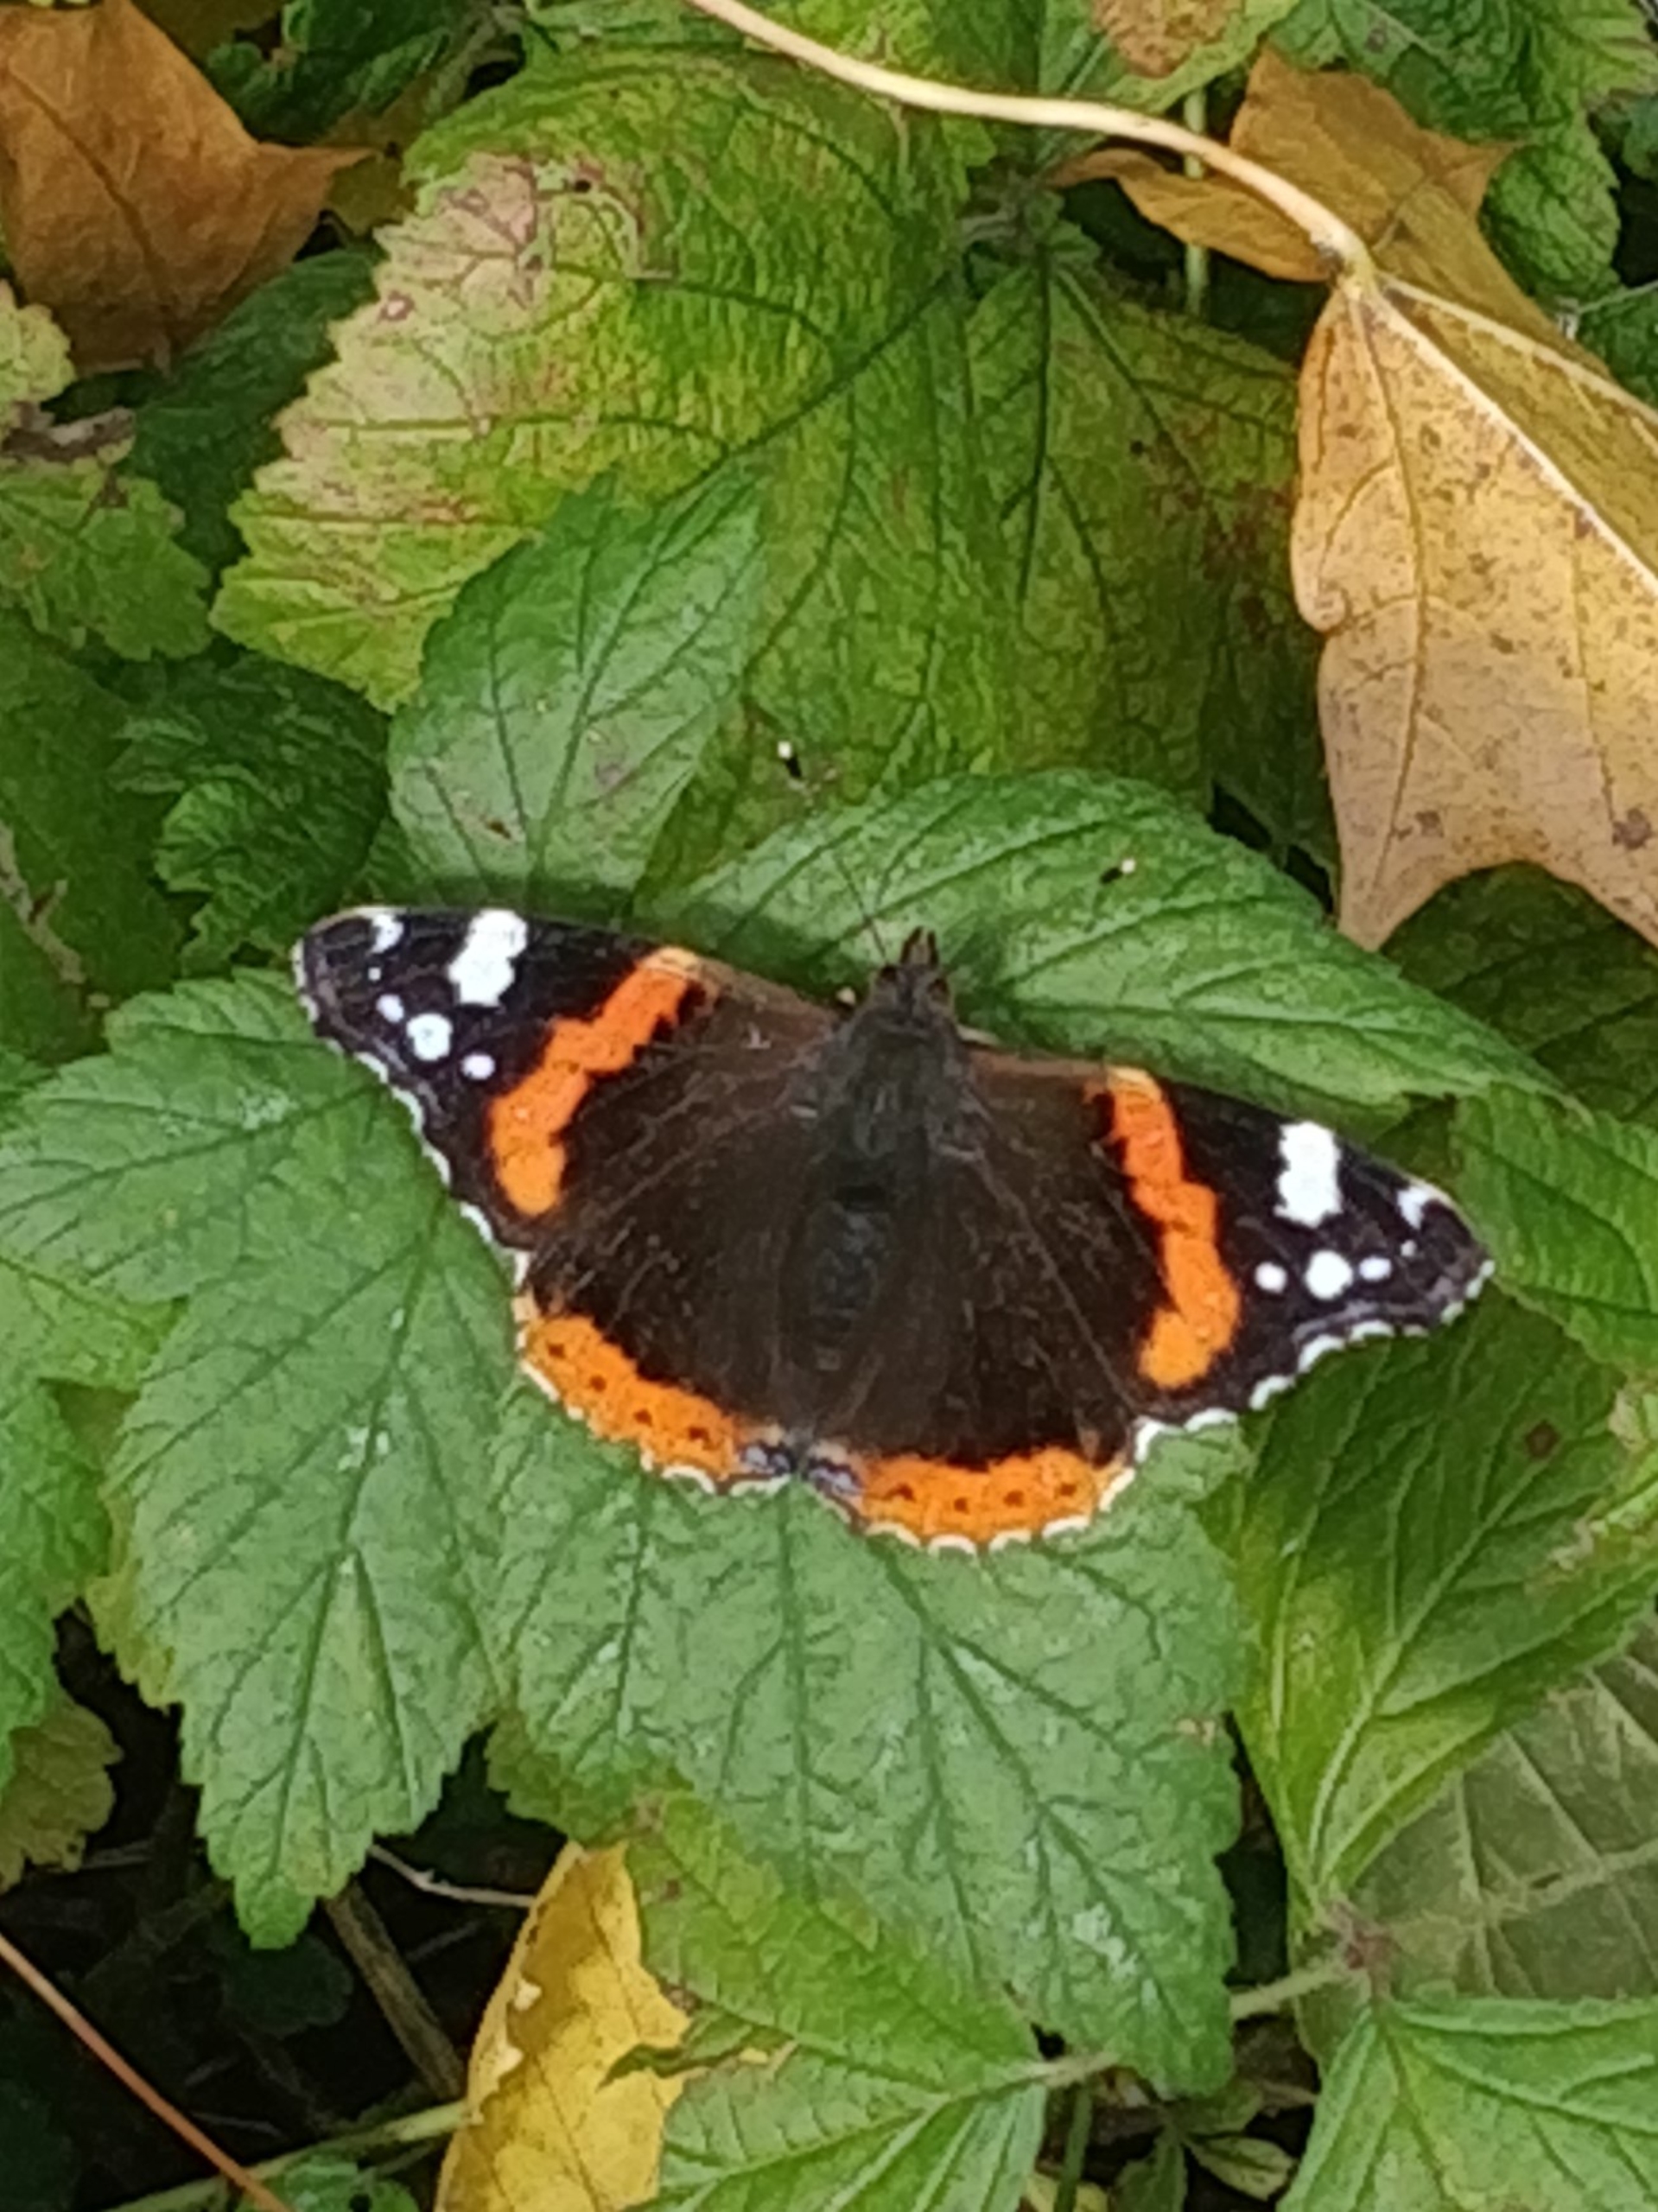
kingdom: Animalia
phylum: Arthropoda
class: Insecta
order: Lepidoptera
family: Nymphalidae
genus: Vanessa
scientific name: Vanessa atalanta
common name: Admiral
